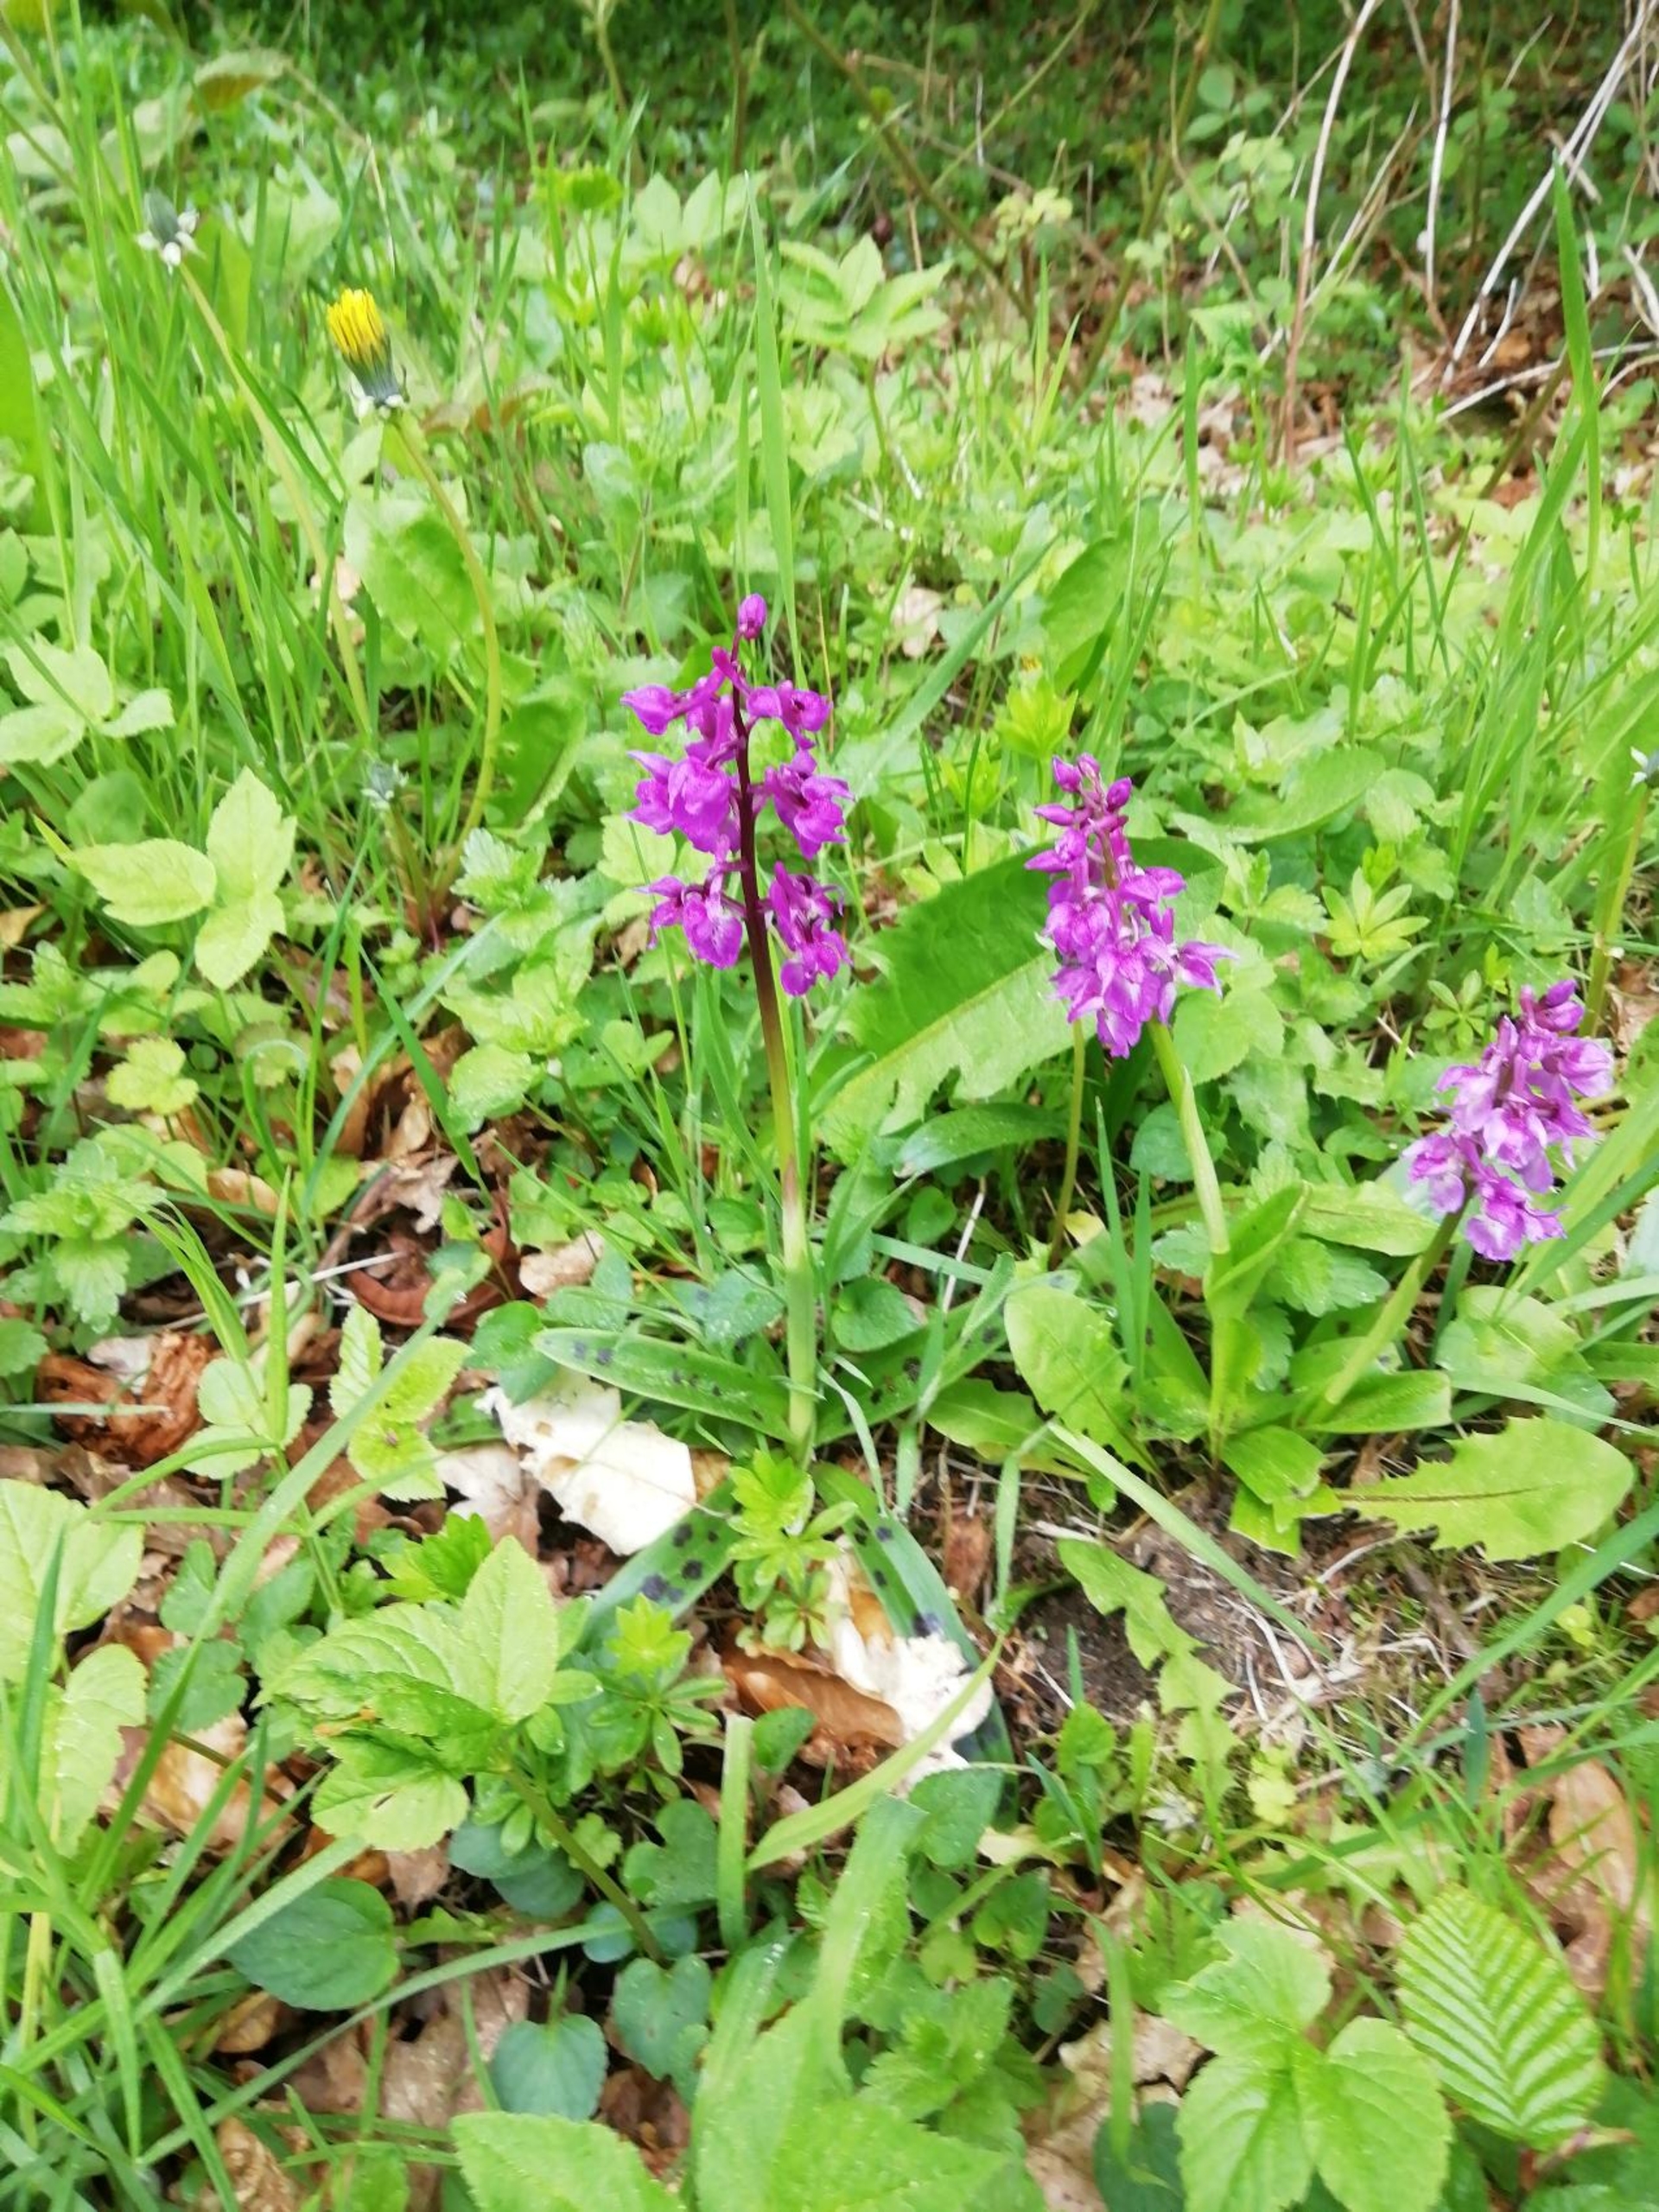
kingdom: Plantae
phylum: Tracheophyta
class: Liliopsida
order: Asparagales
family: Orchidaceae
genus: Orchis
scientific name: Orchis mascula
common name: Tyndakset gøgeurt
